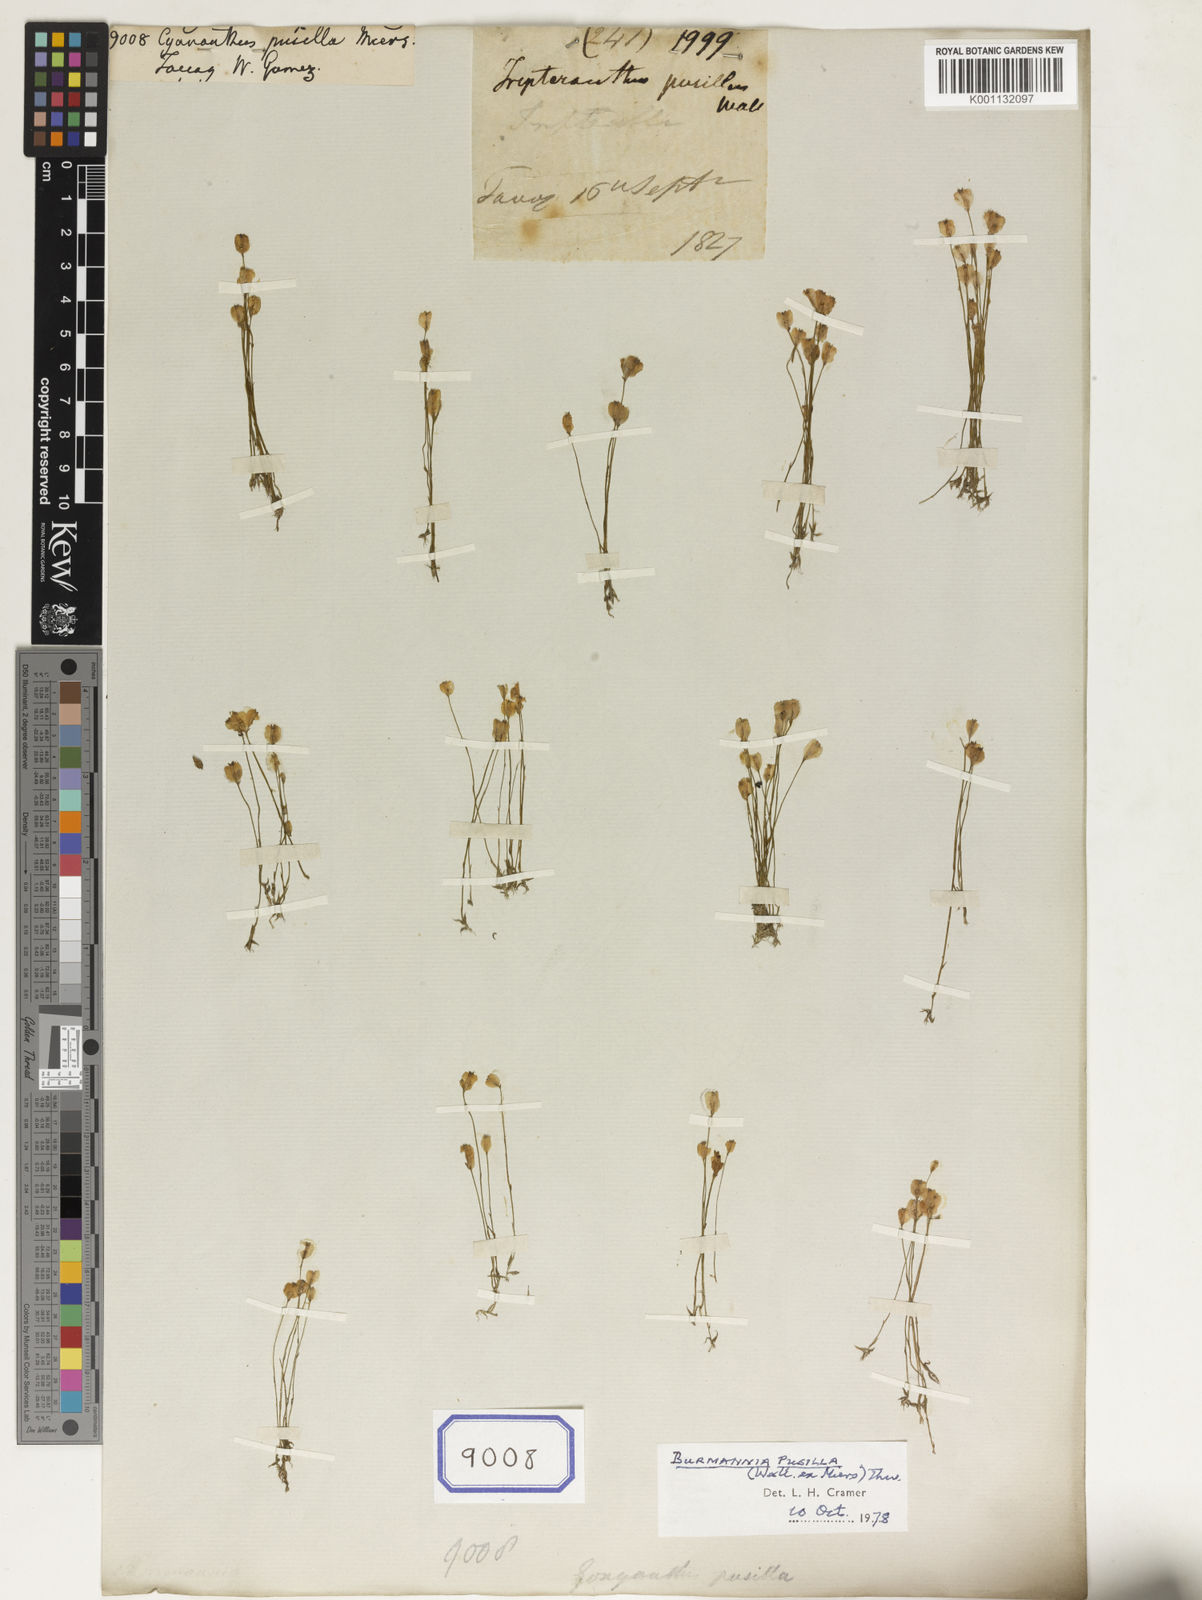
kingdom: Plantae
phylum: Tracheophyta
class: Magnoliopsida
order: Asterales
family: Campanulaceae
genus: Cyananthus
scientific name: Cyananthus
